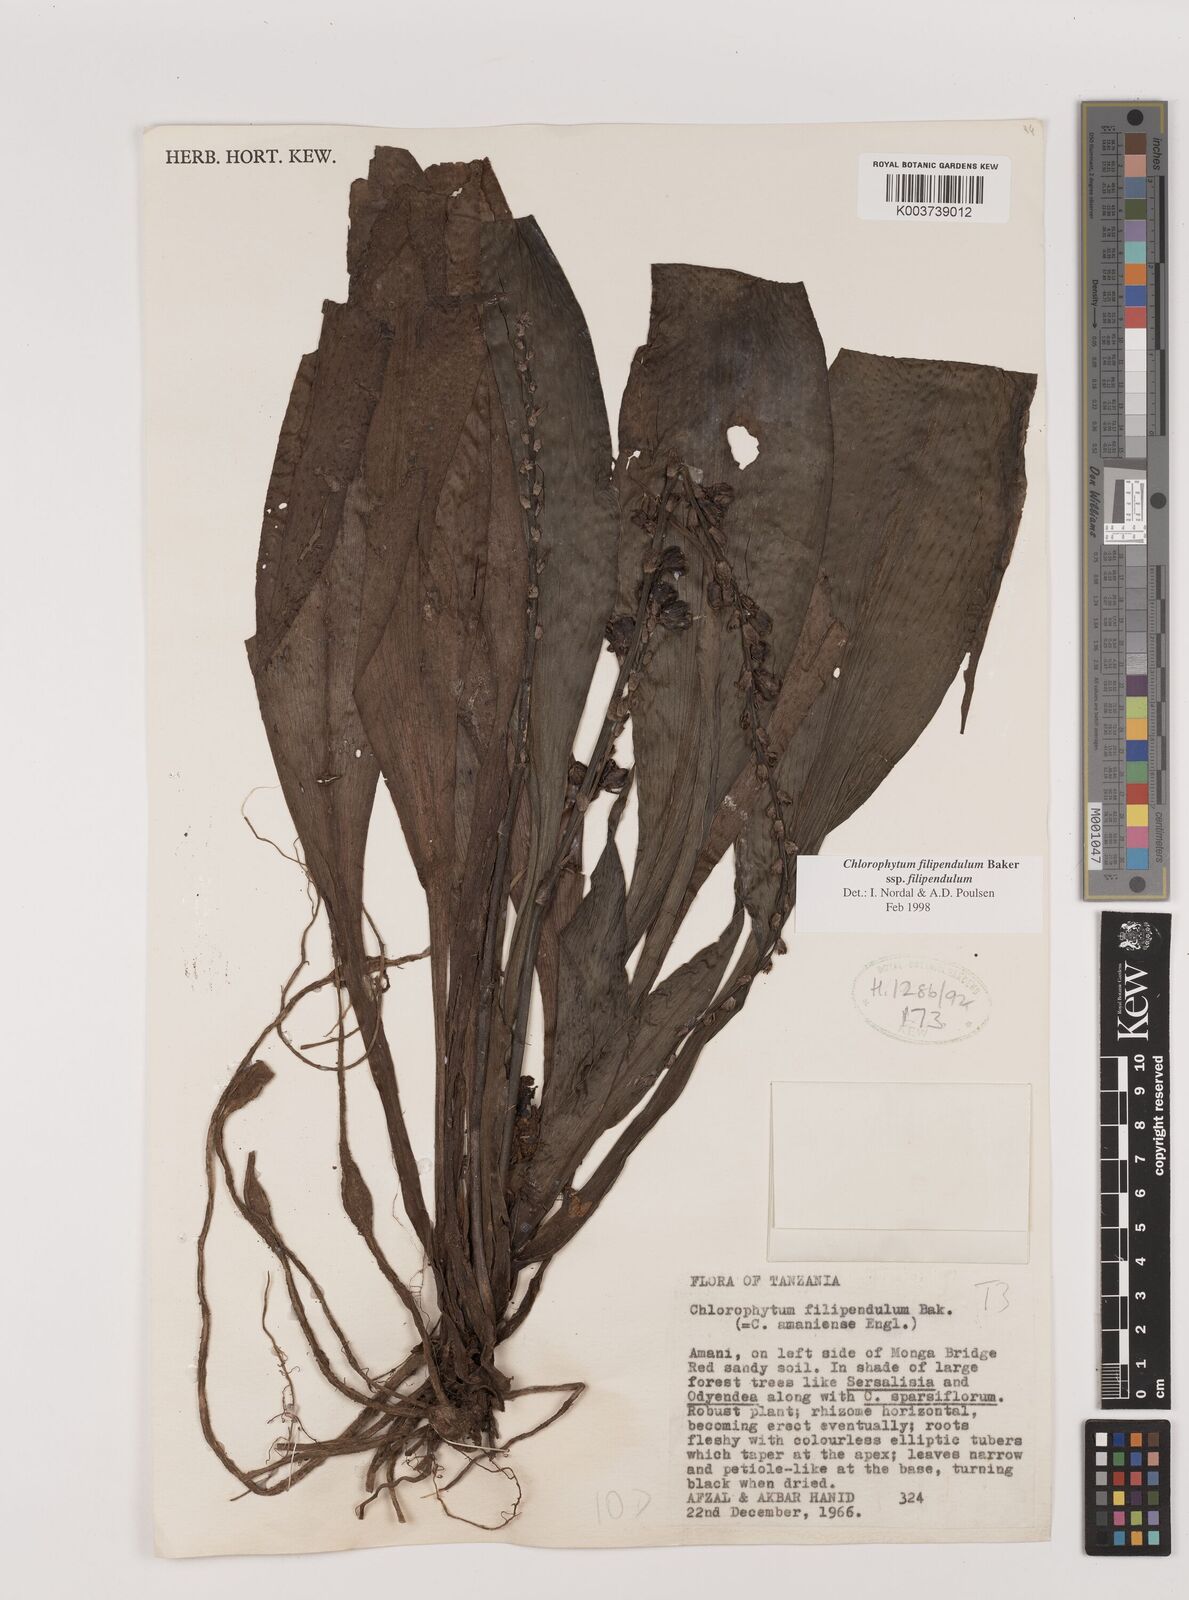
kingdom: Plantae
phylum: Tracheophyta
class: Liliopsida
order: Asparagales
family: Asparagaceae
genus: Chlorophytum
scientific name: Chlorophytum filipendulum
